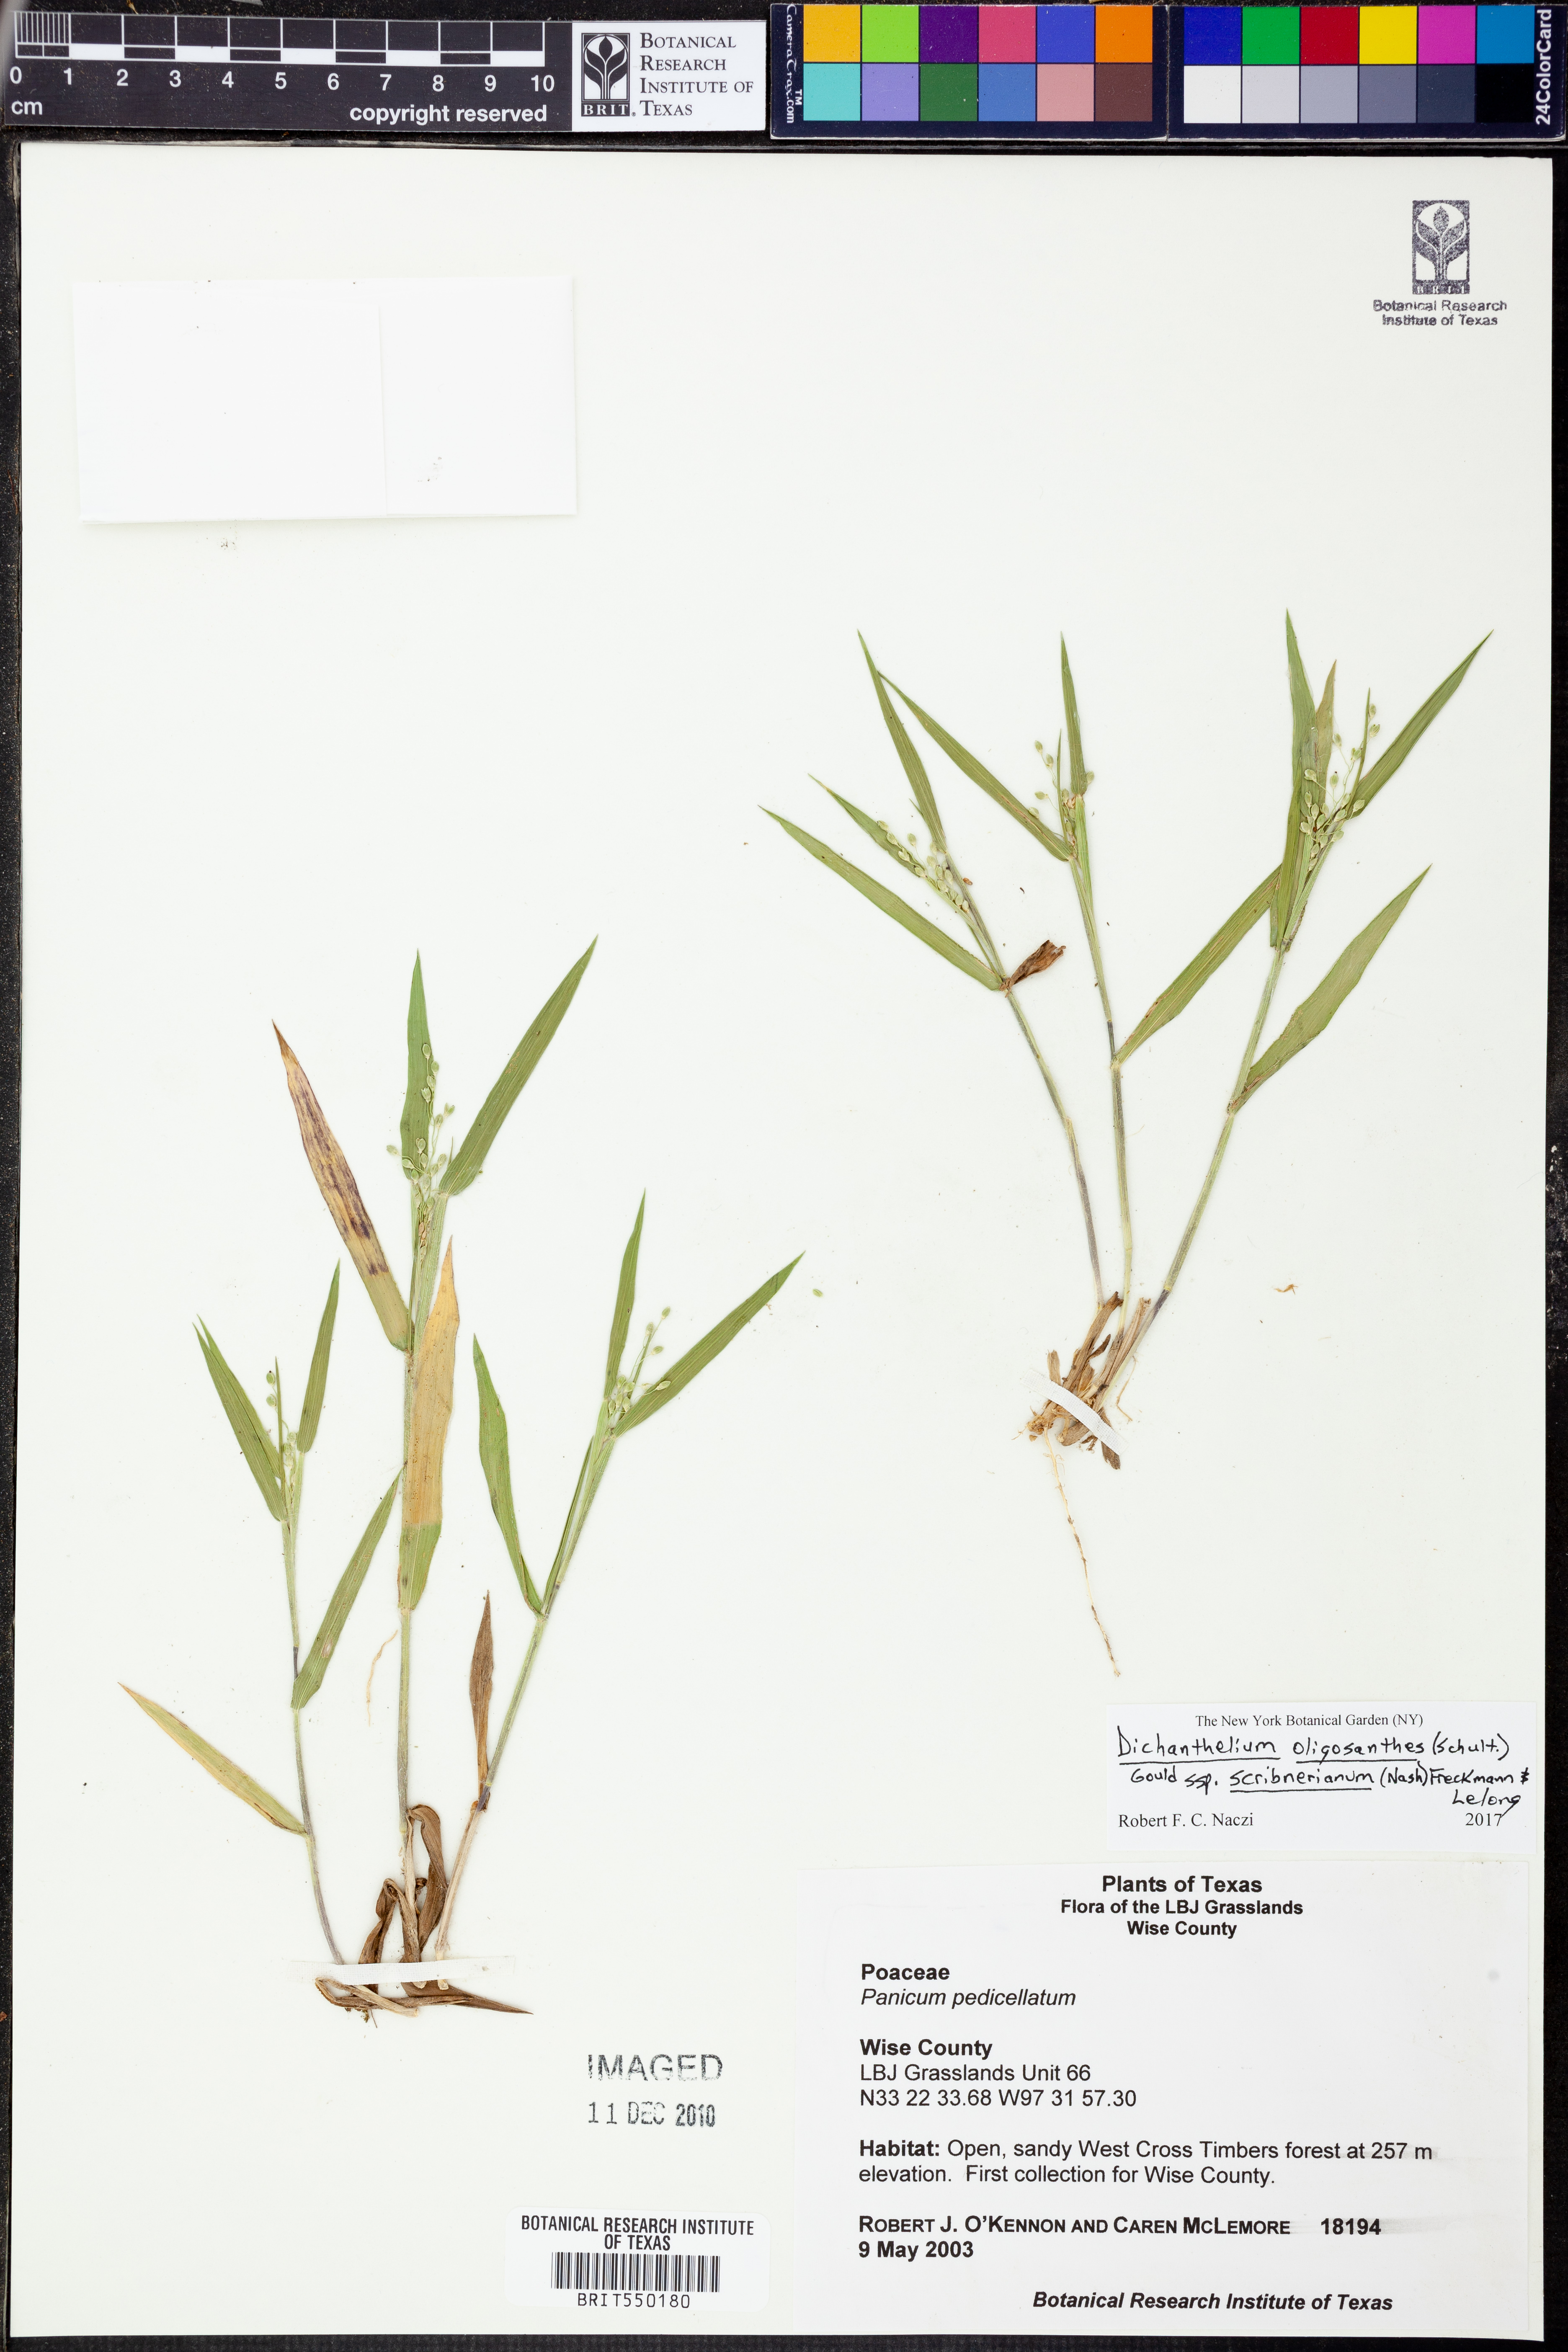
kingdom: Plantae
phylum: Tracheophyta
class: Liliopsida
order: Poales
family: Poaceae
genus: Dichanthelium
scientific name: Dichanthelium scribnerianum
